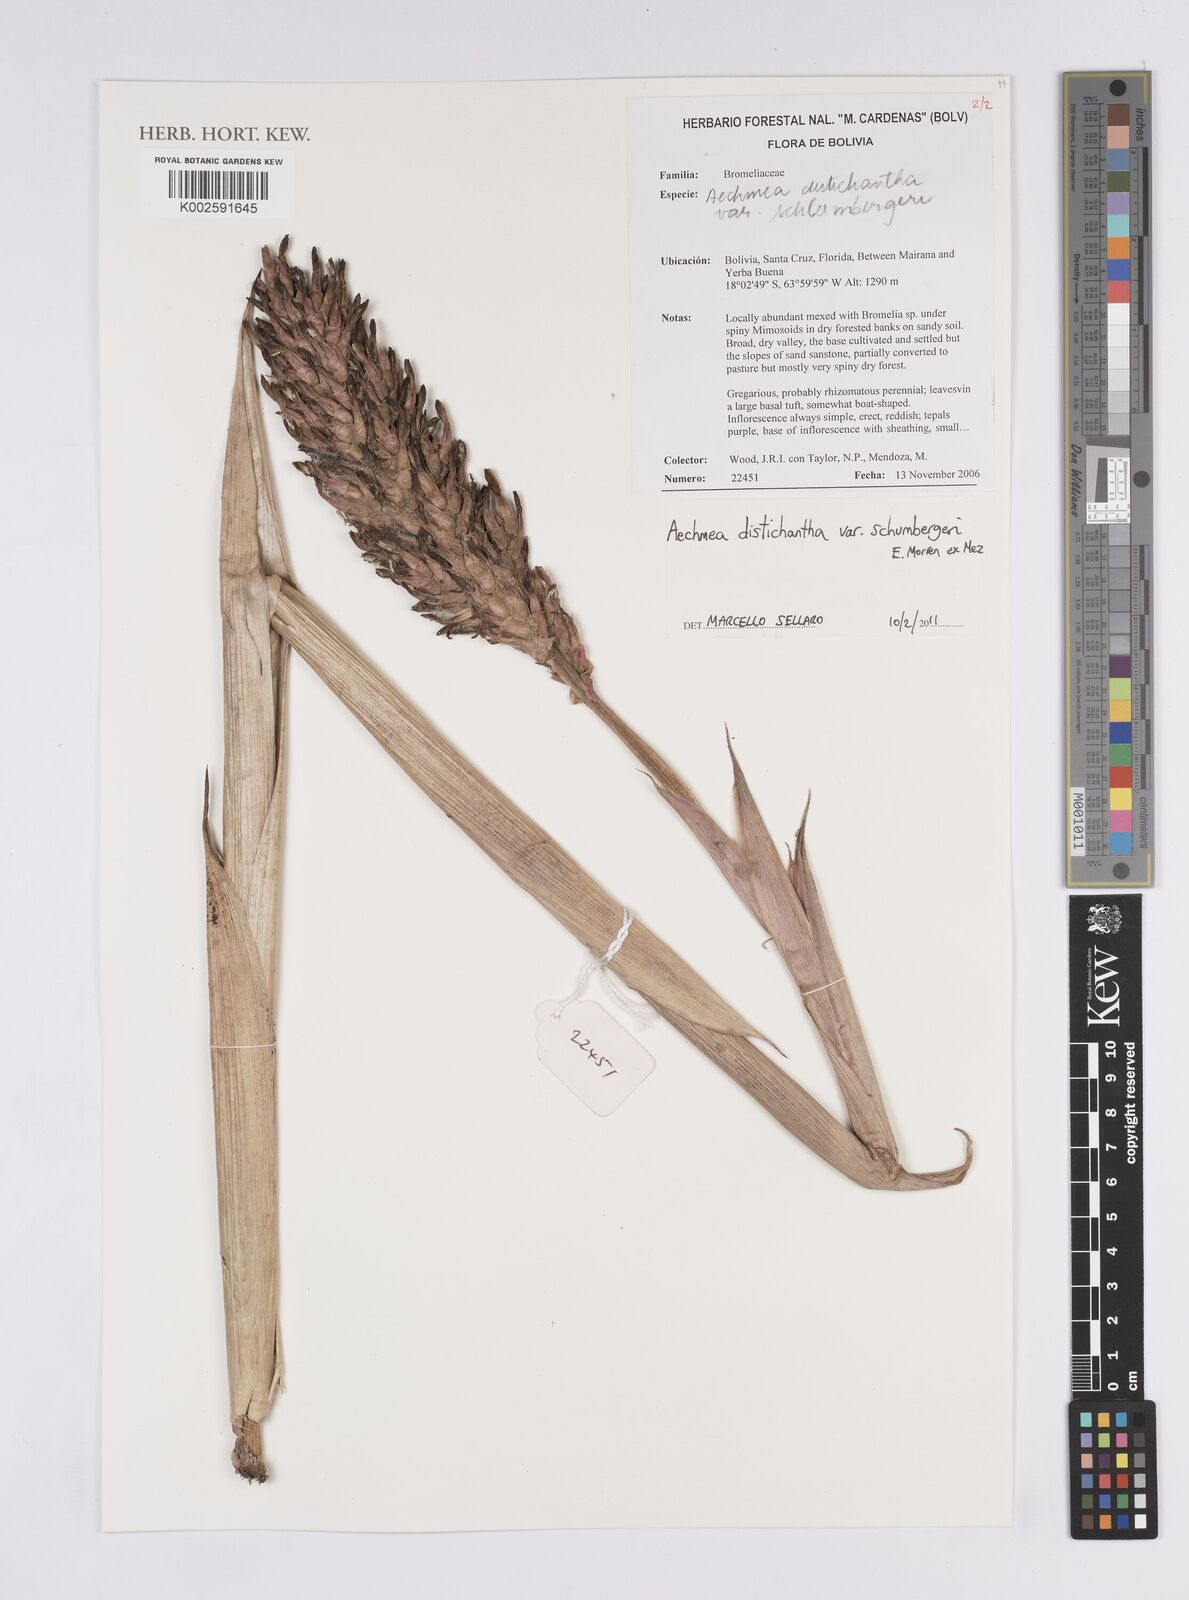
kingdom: Plantae
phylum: Tracheophyta
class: Liliopsida
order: Poales
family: Bromeliaceae
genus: Aechmea
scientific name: Aechmea distichantha
